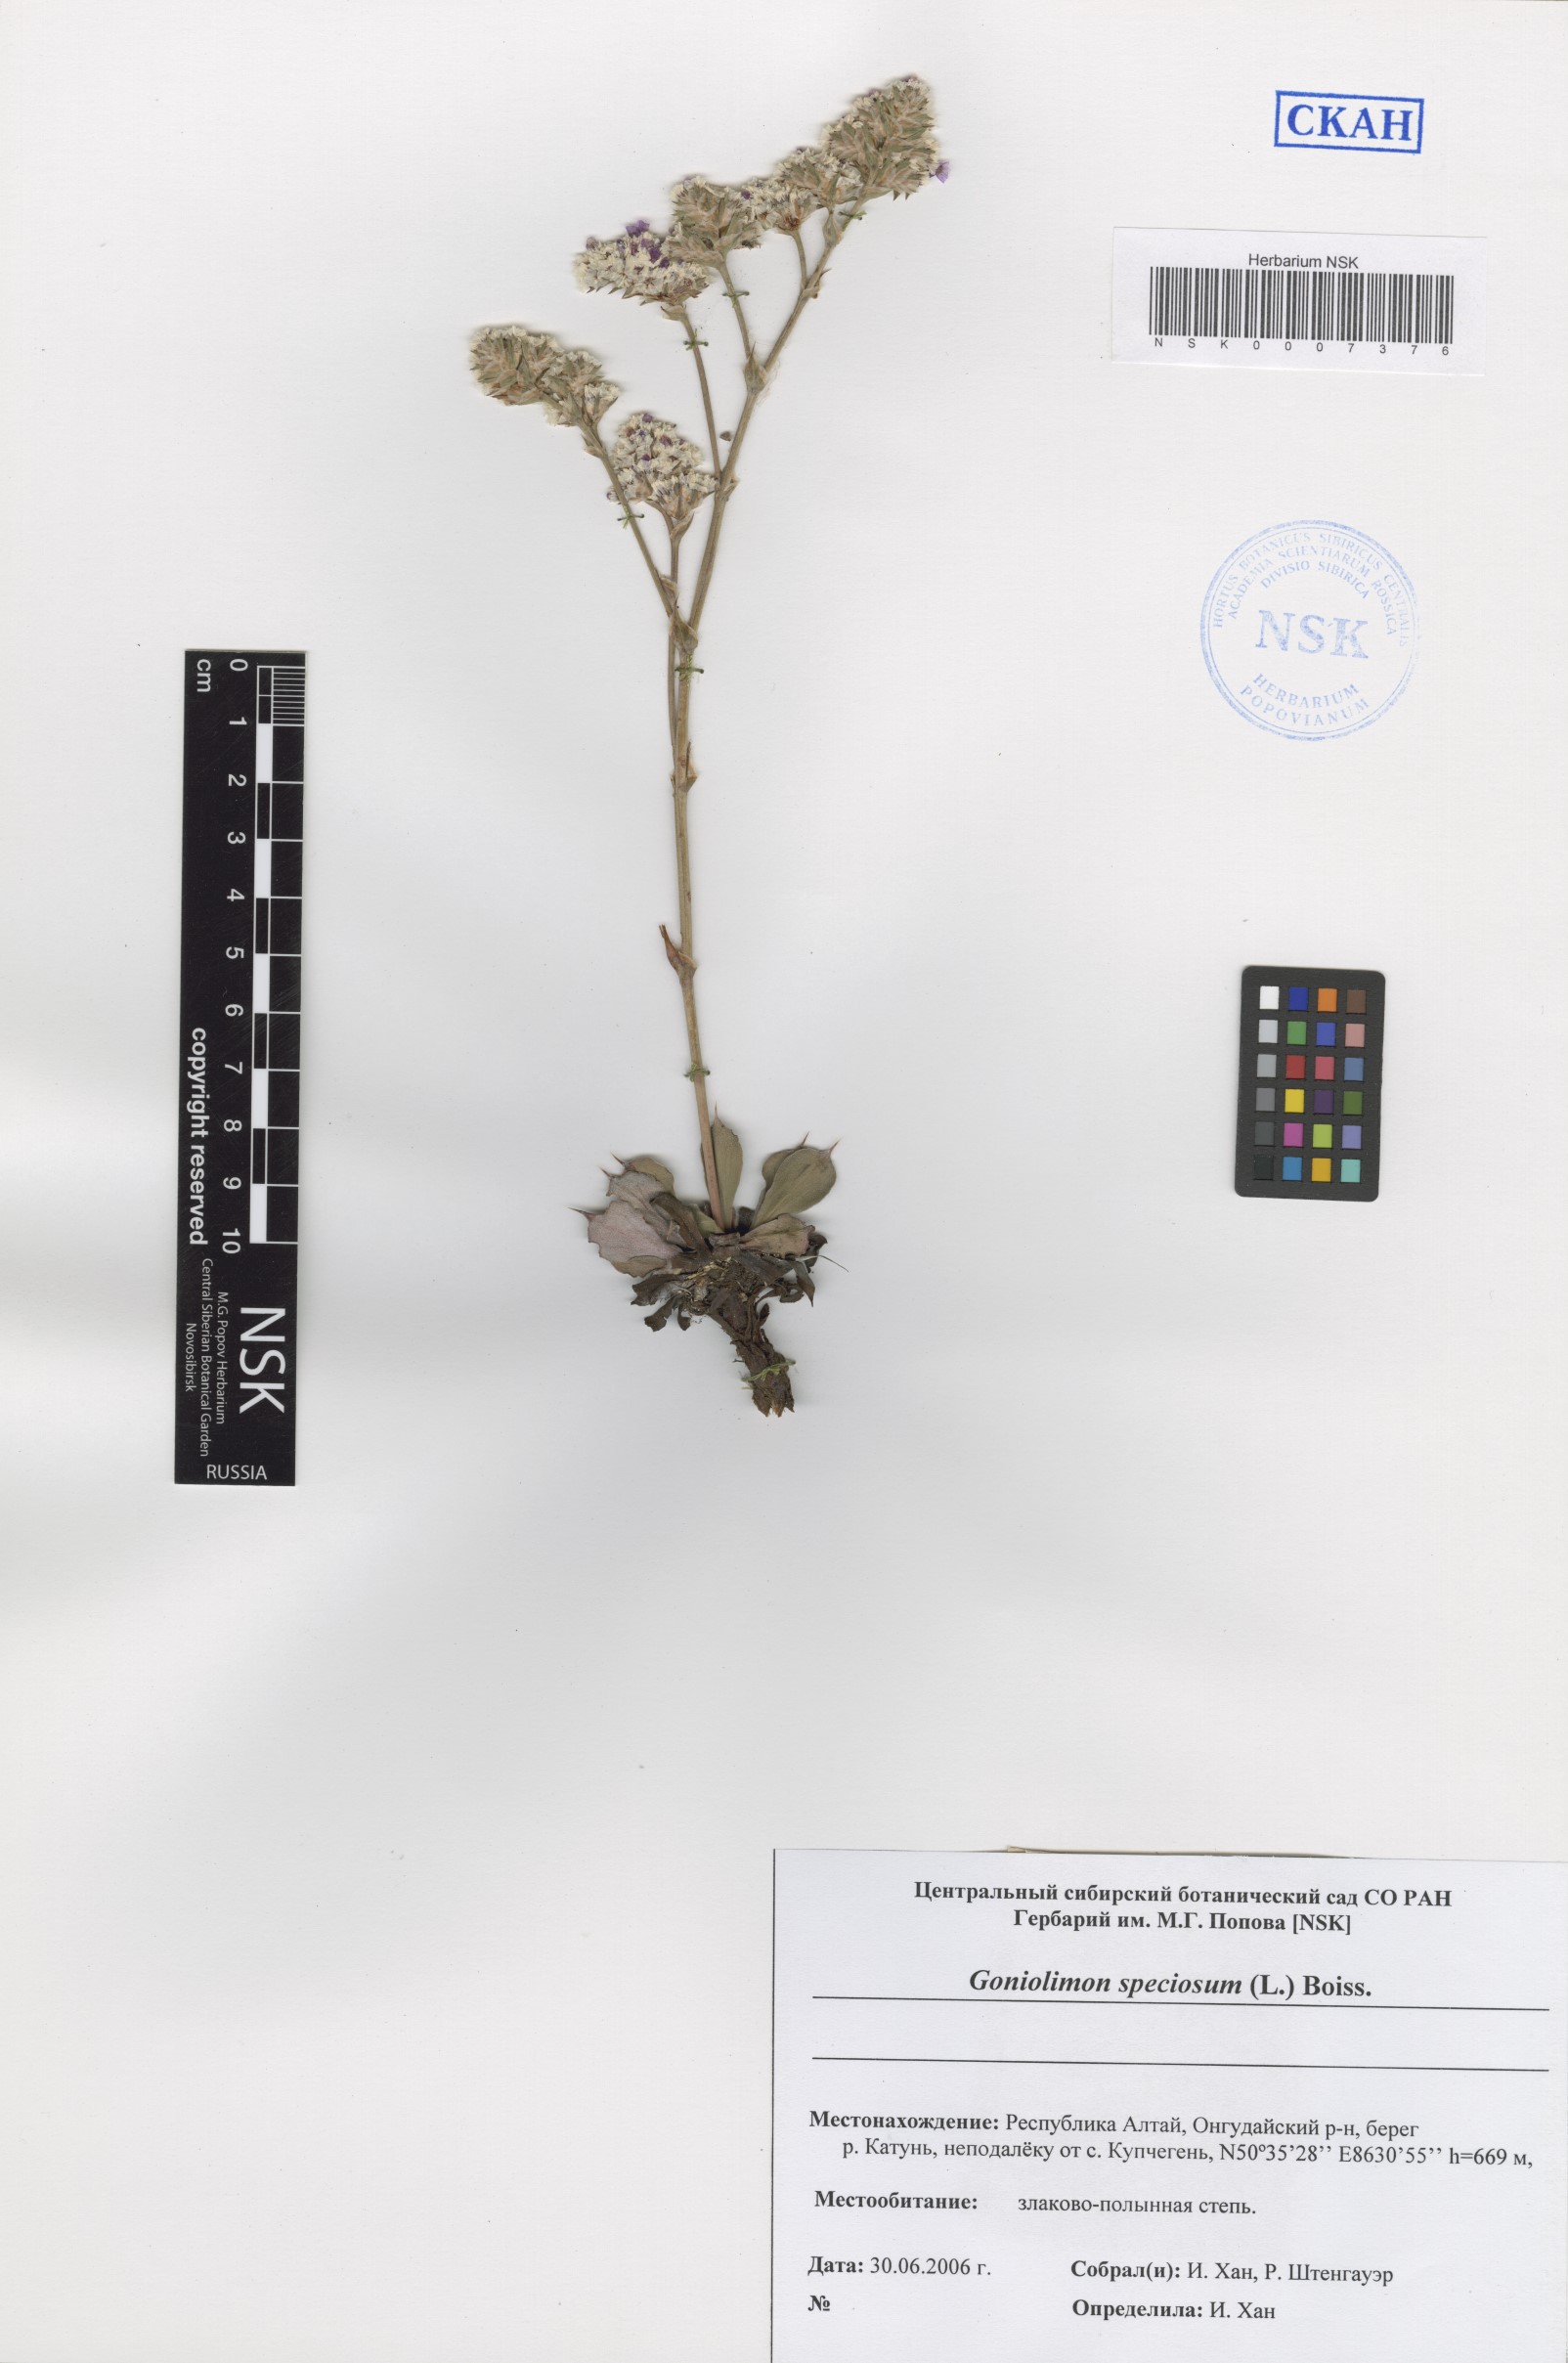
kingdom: Plantae
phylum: Tracheophyta
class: Magnoliopsida
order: Caryophyllales
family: Plumbaginaceae
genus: Goniolimon
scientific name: Goniolimon speciosum
